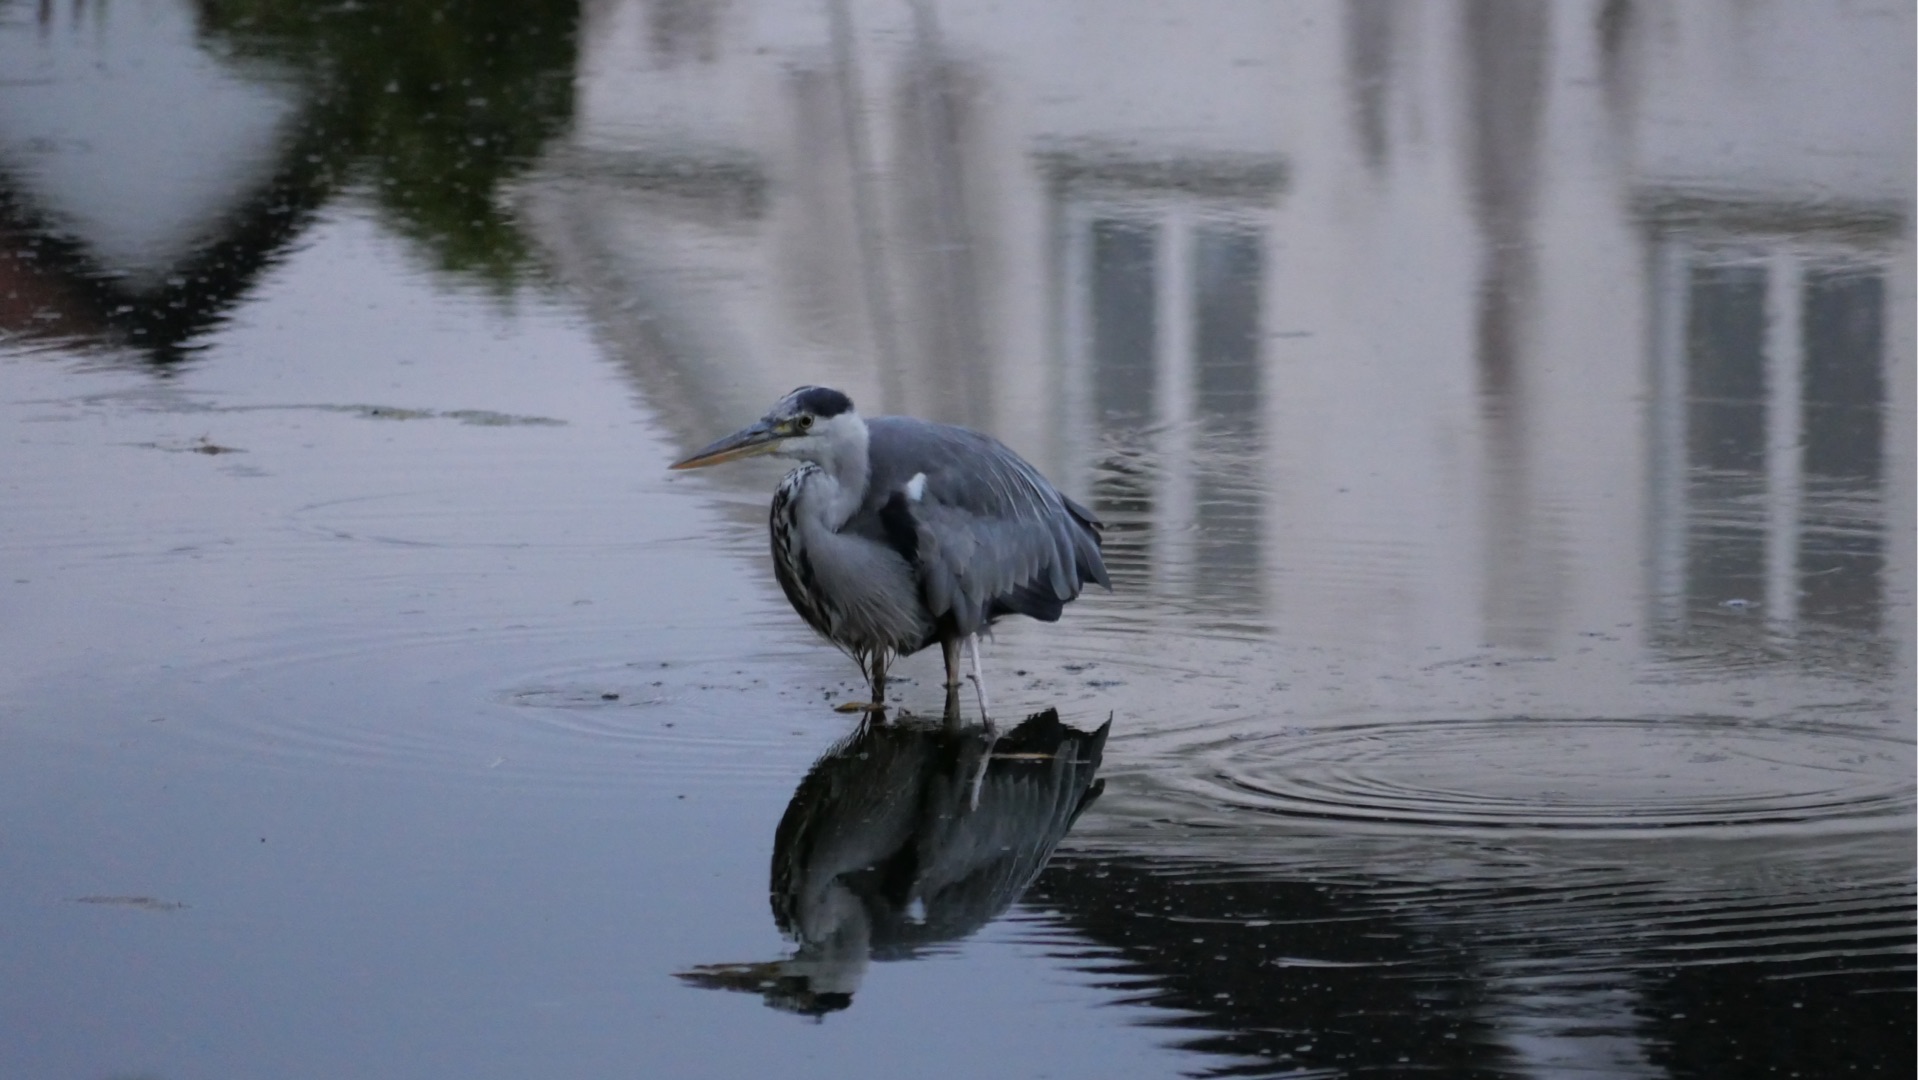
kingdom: Animalia
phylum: Chordata
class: Aves
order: Pelecaniformes
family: Ardeidae
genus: Ardea
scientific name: Ardea cinerea
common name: Fiskehejre
